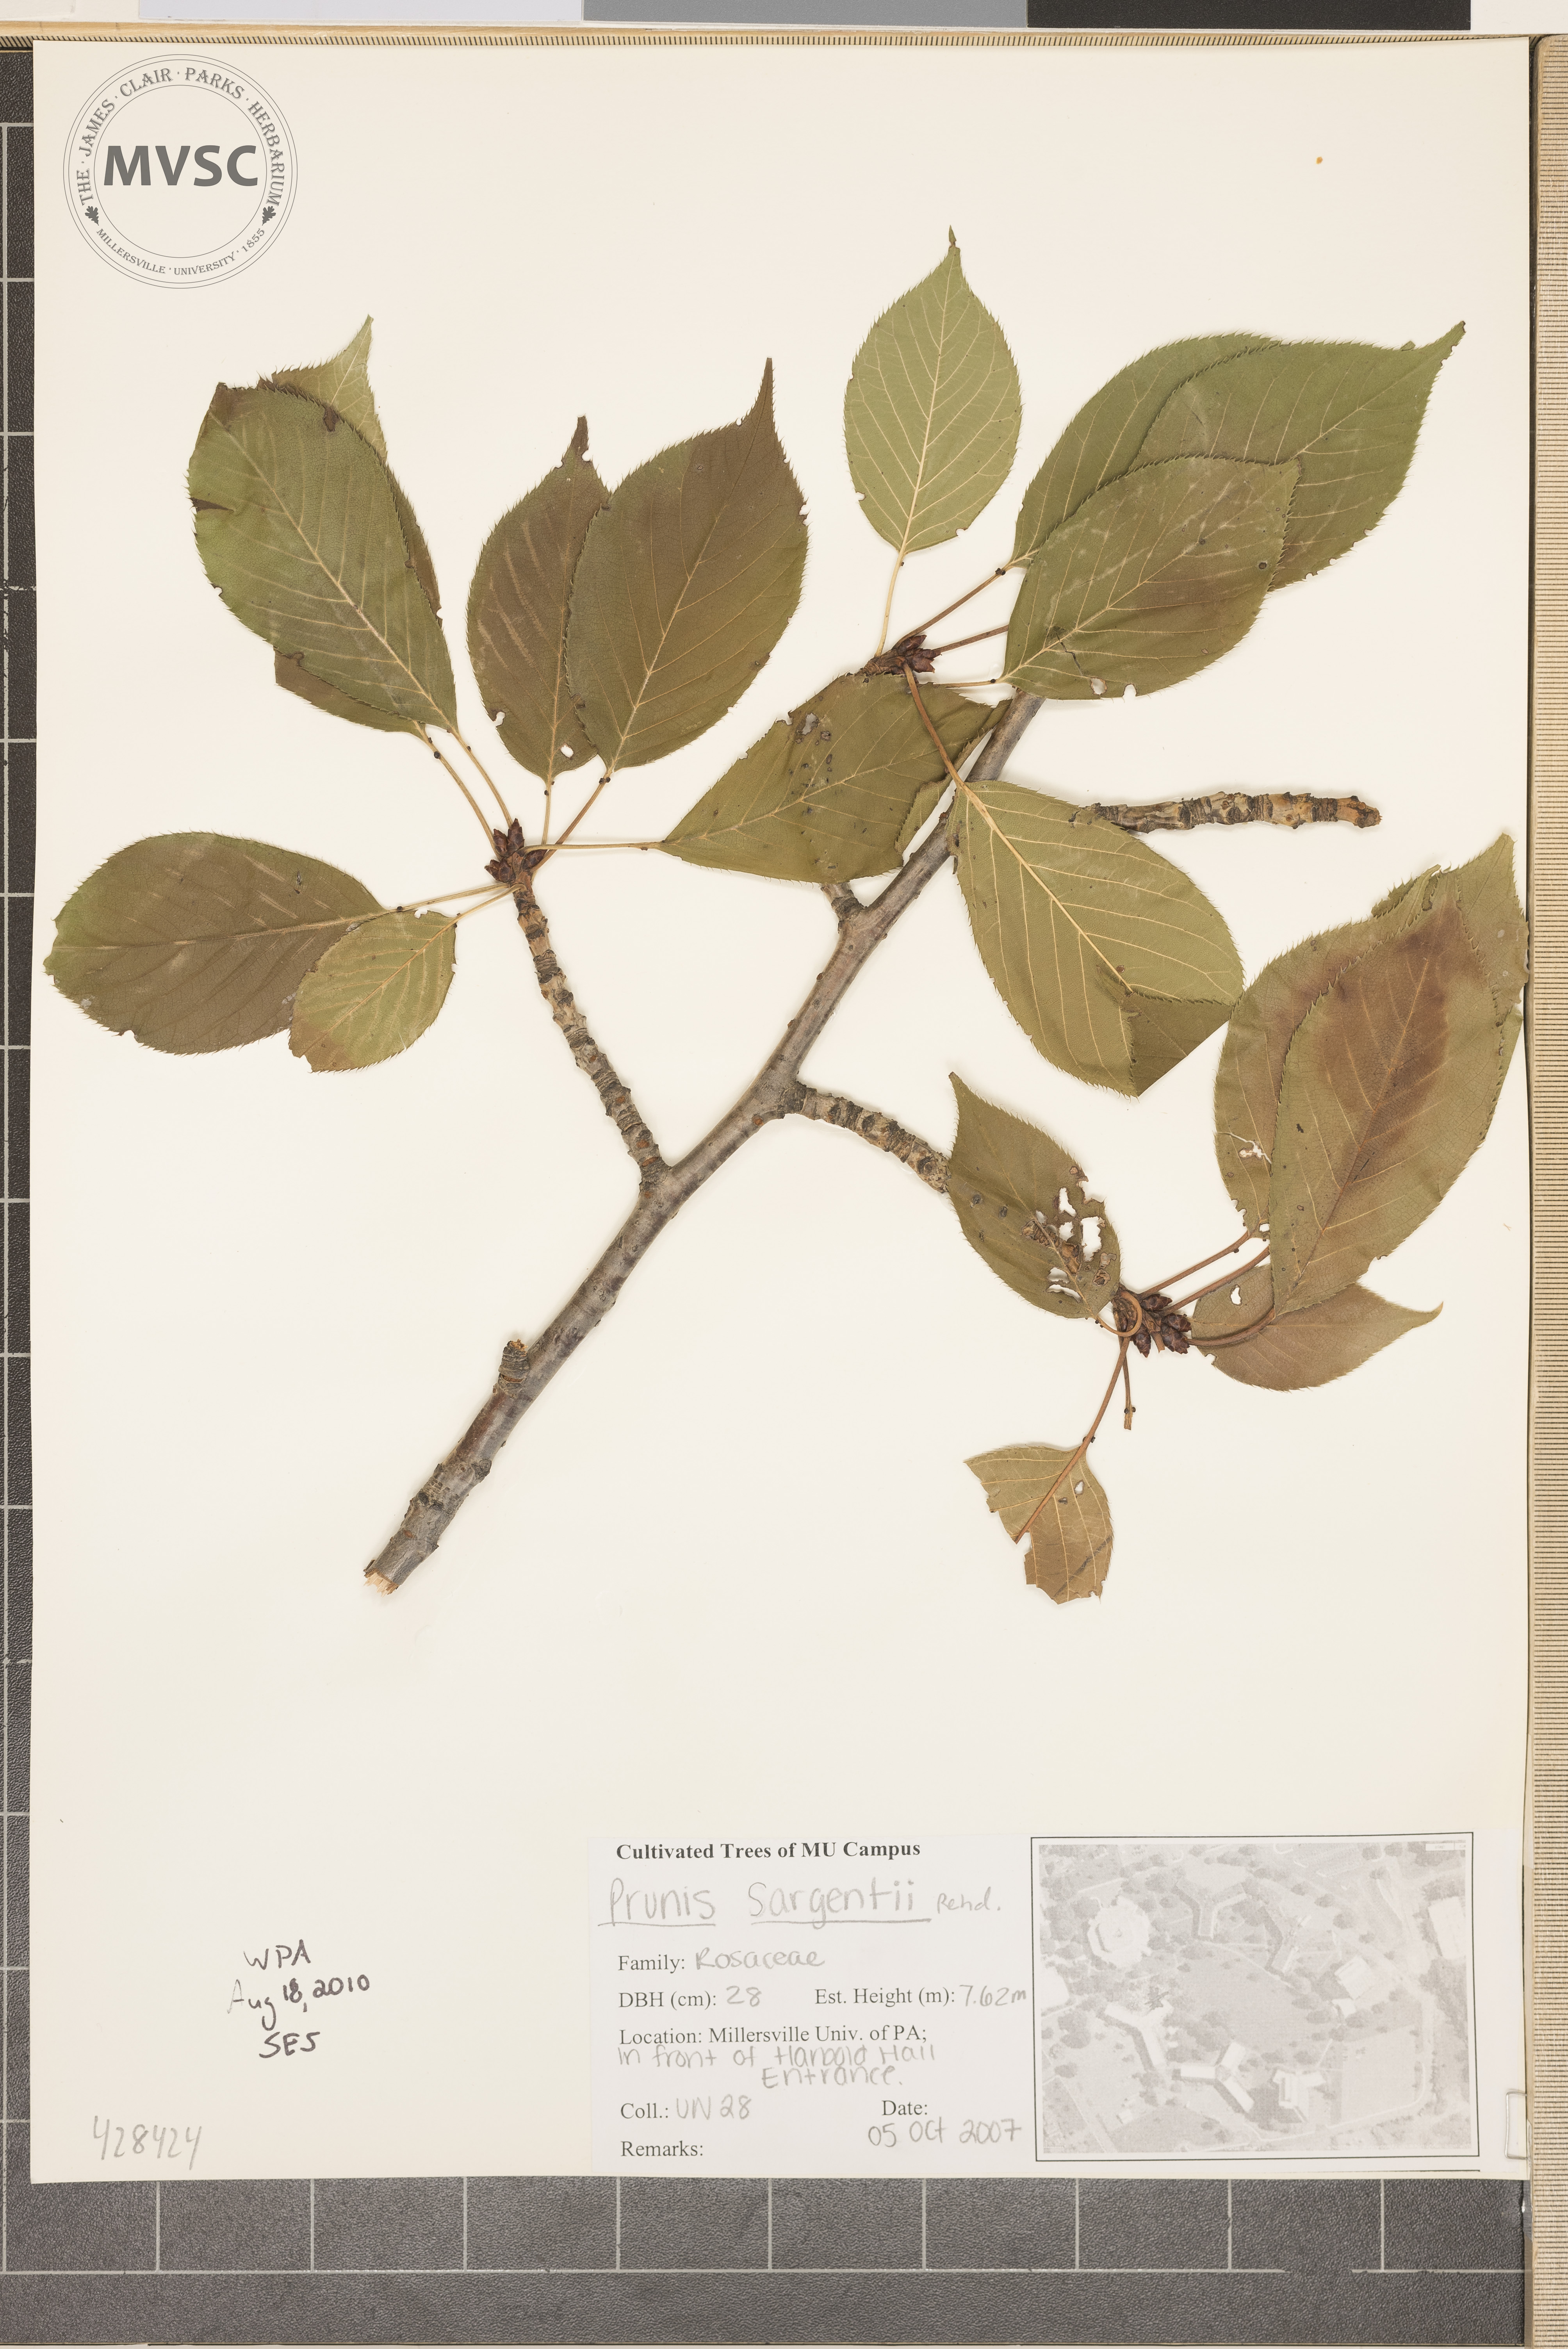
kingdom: Plantae
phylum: Tracheophyta
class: Magnoliopsida
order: Rosales
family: Rosaceae
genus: Prunus
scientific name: Prunus sargentii
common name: Sargent's Cherry
